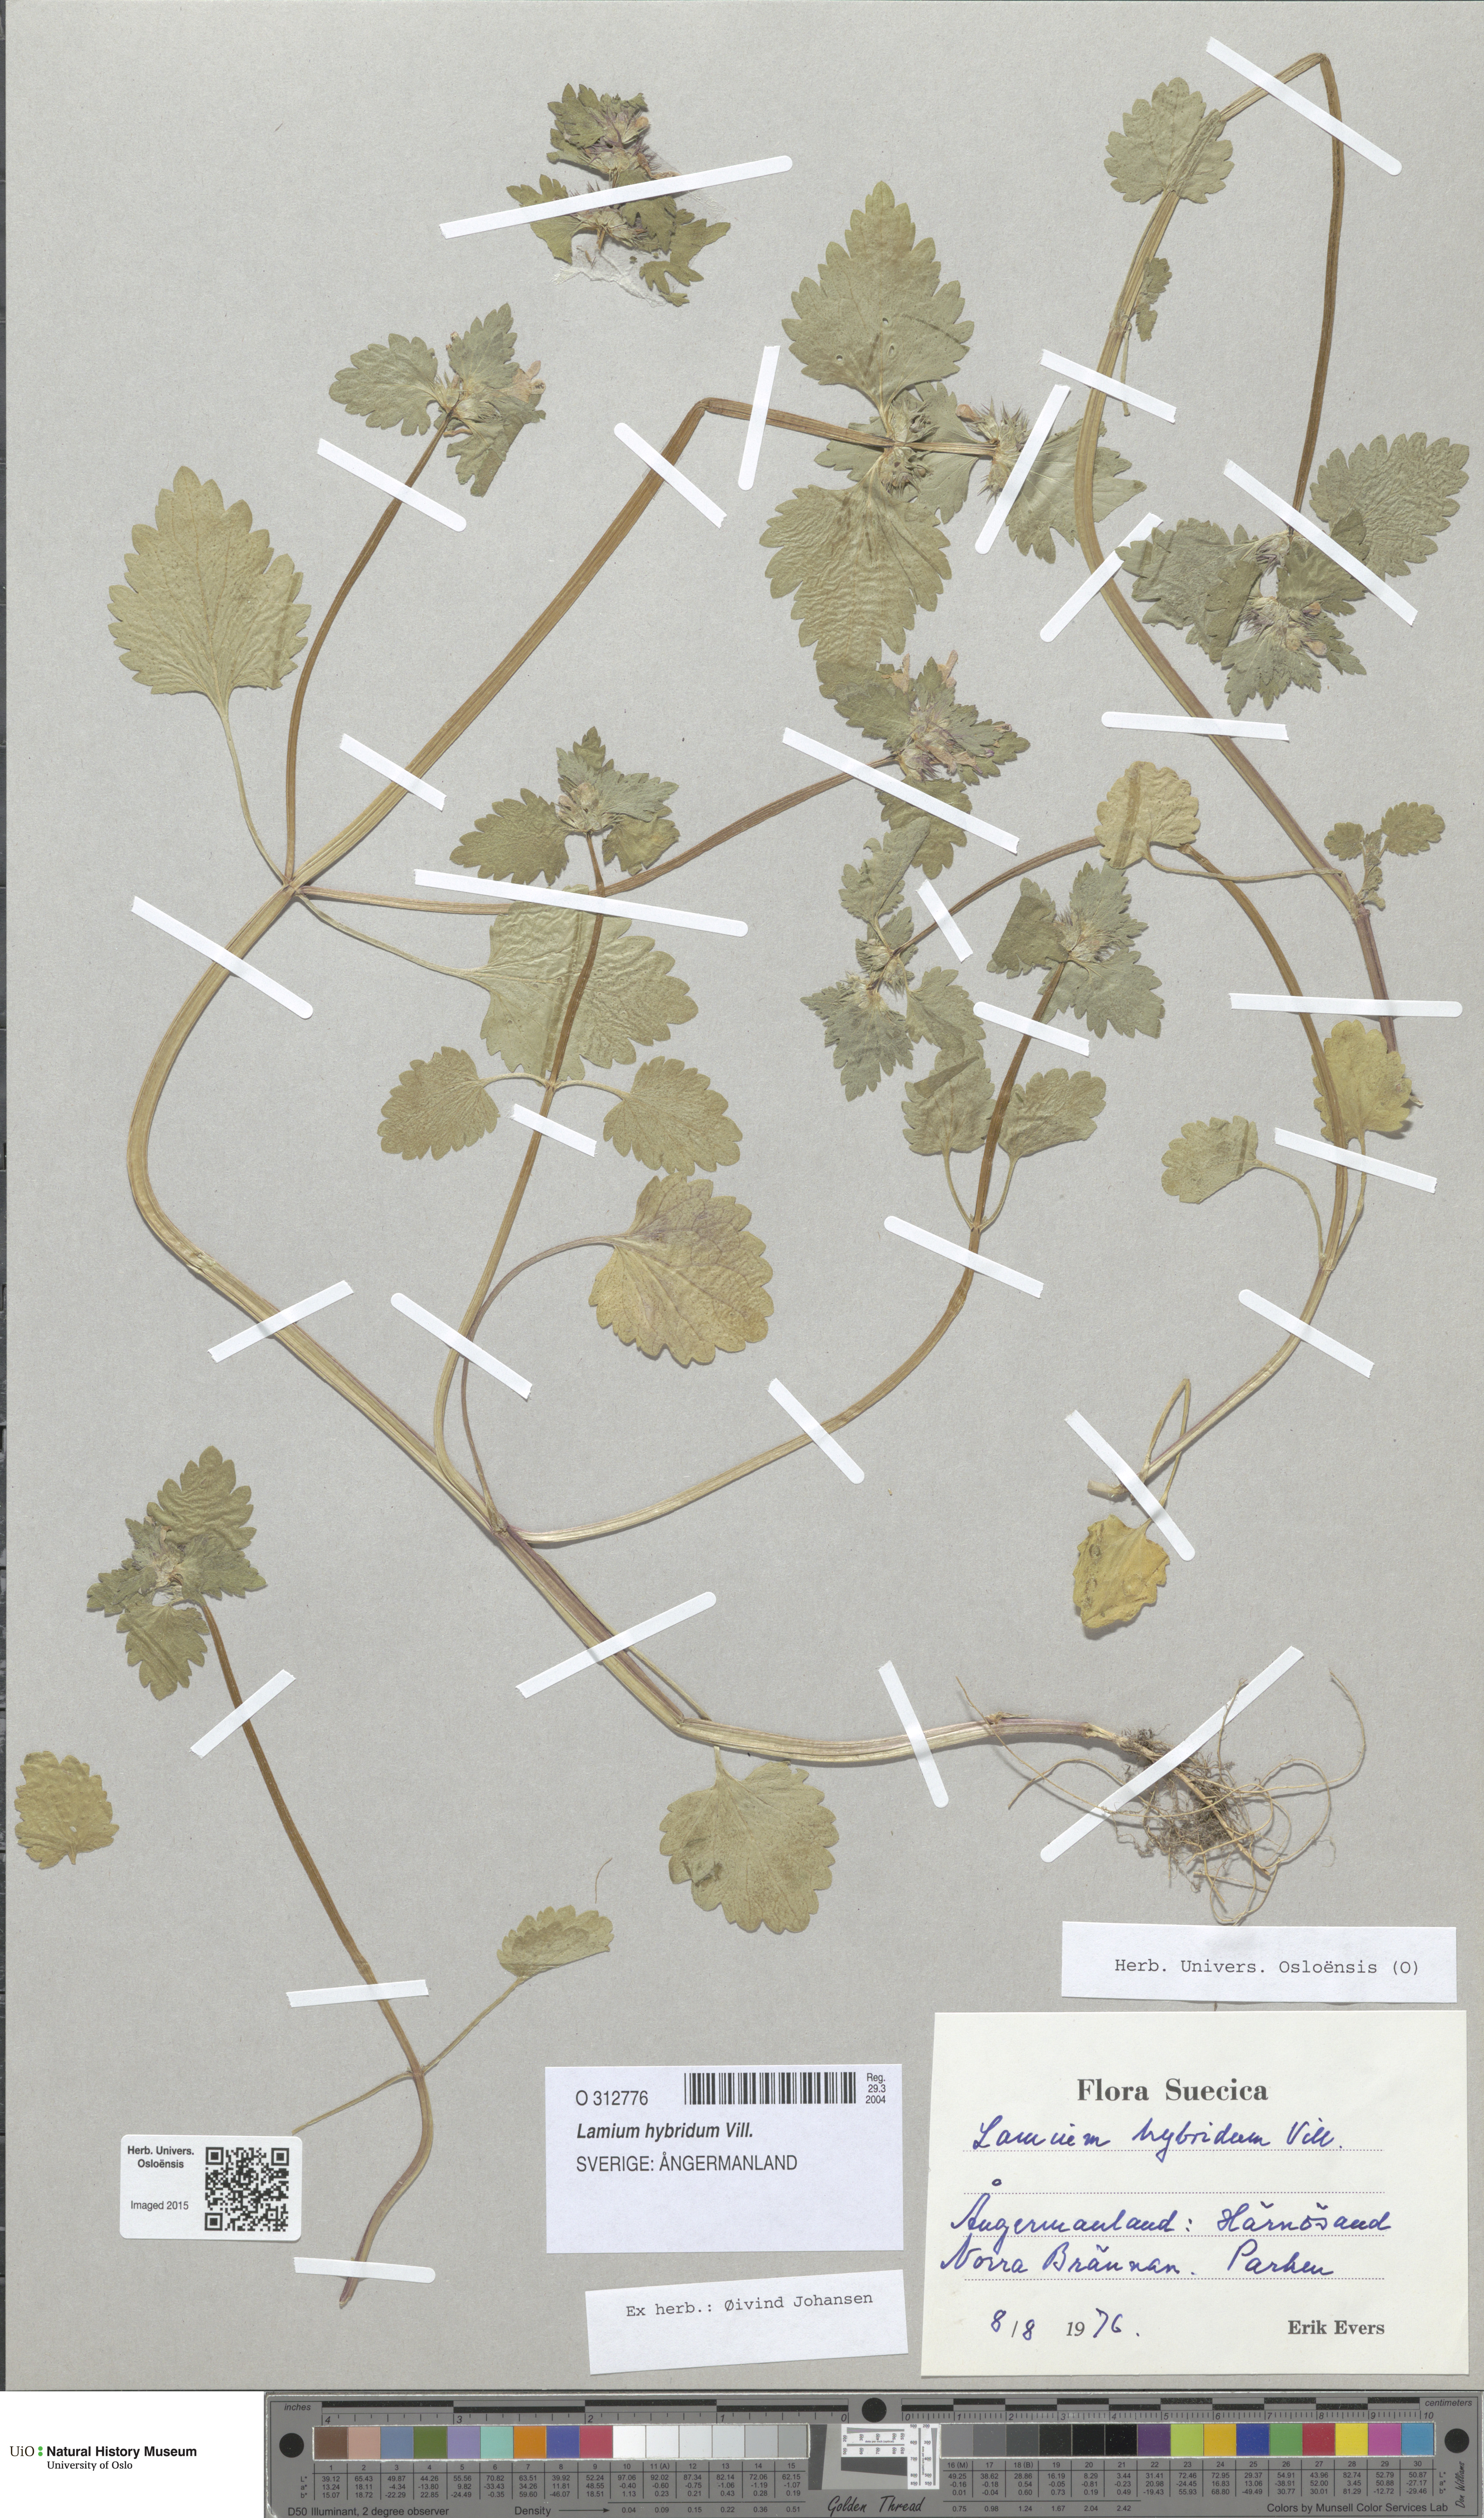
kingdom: Plantae
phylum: Tracheophyta
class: Magnoliopsida
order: Lamiales
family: Lamiaceae
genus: Lamium
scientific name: Lamium hybridum
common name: Cut-leaved dead-nettle
